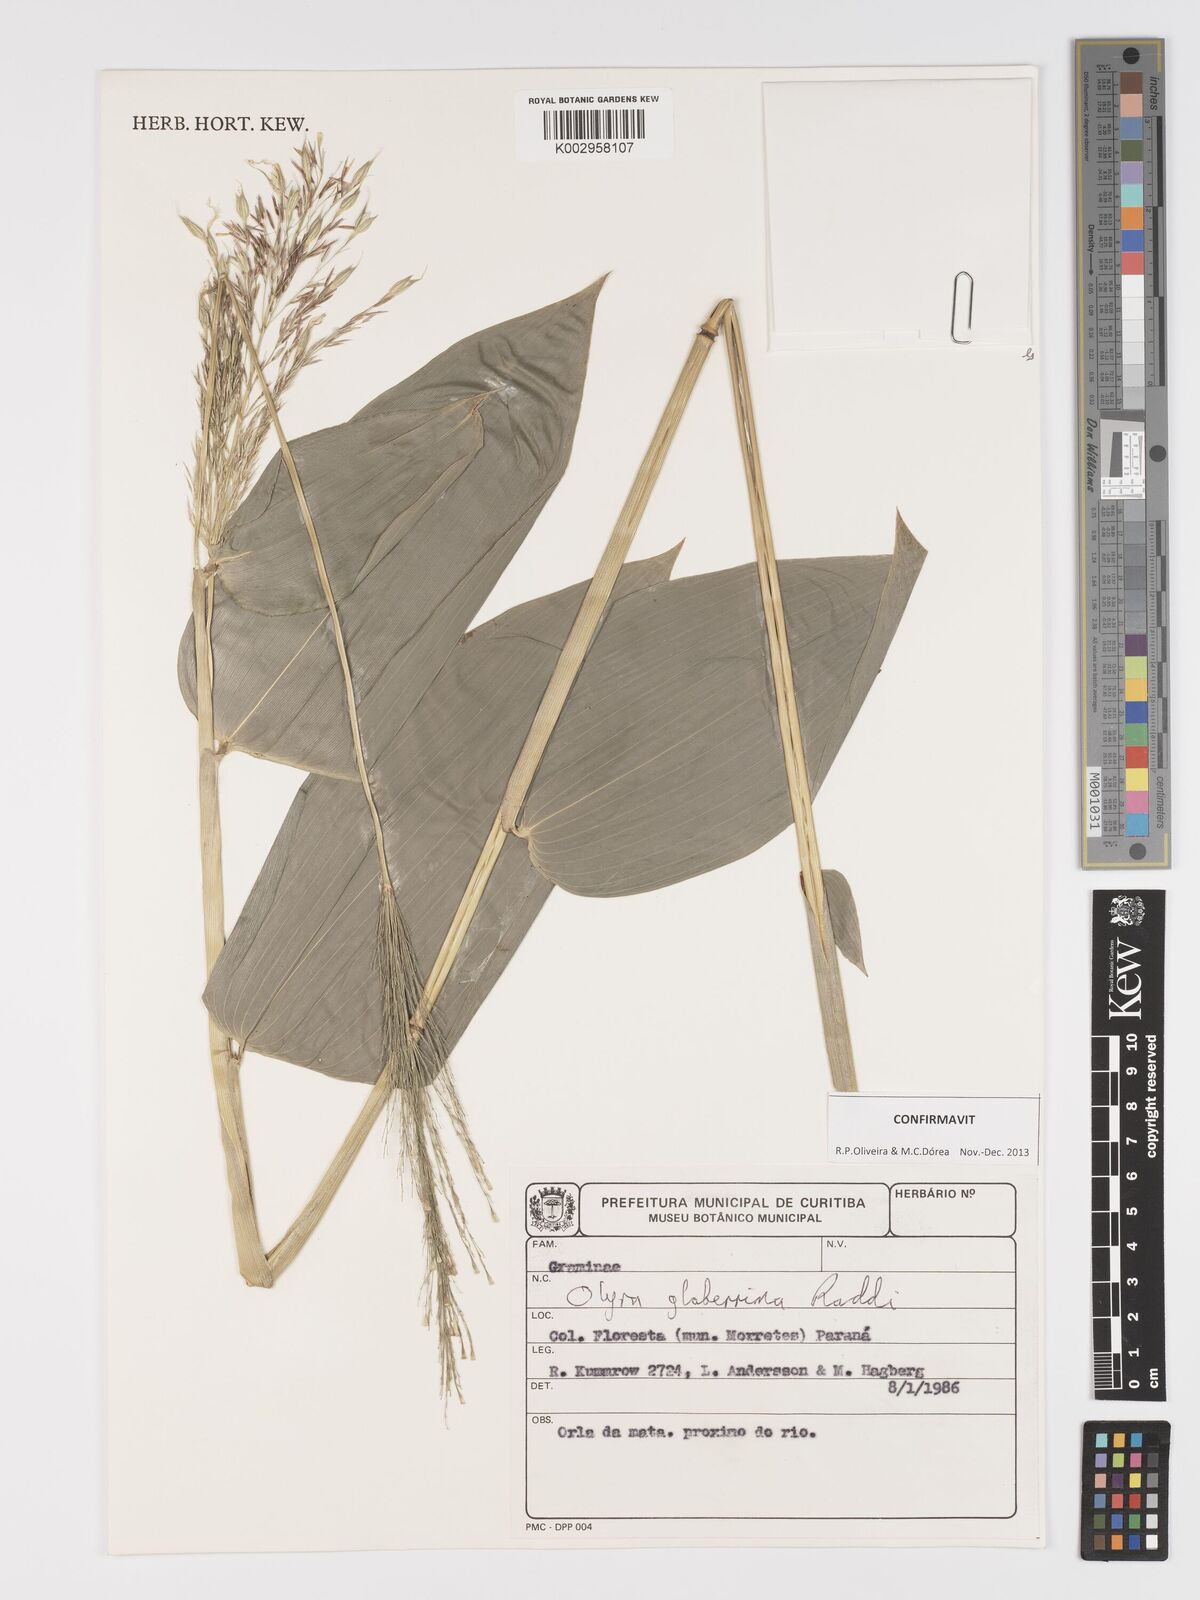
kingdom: Plantae
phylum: Tracheophyta
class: Liliopsida
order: Poales
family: Poaceae
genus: Olyra
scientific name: Olyra glaberrima
